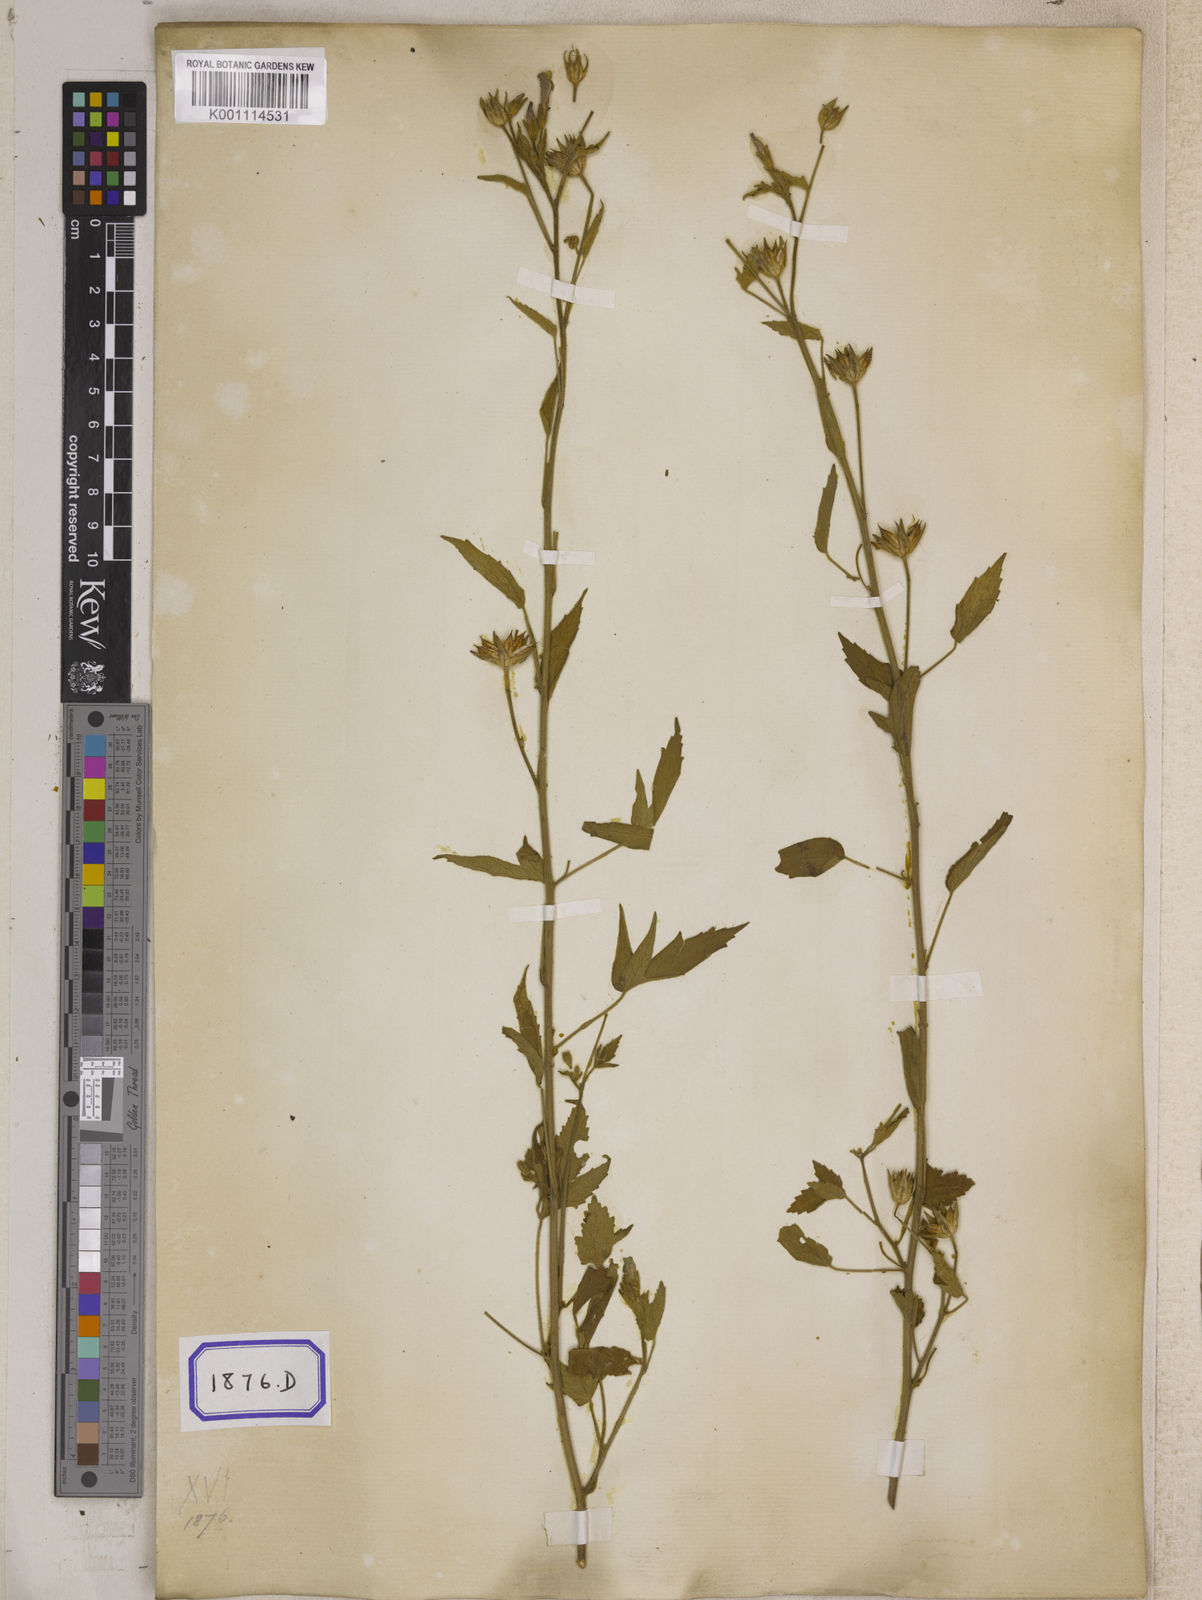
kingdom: Plantae
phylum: Tracheophyta
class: Magnoliopsida
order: Malvales
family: Malvaceae
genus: Hibiscus
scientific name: Hibiscus lobatus
